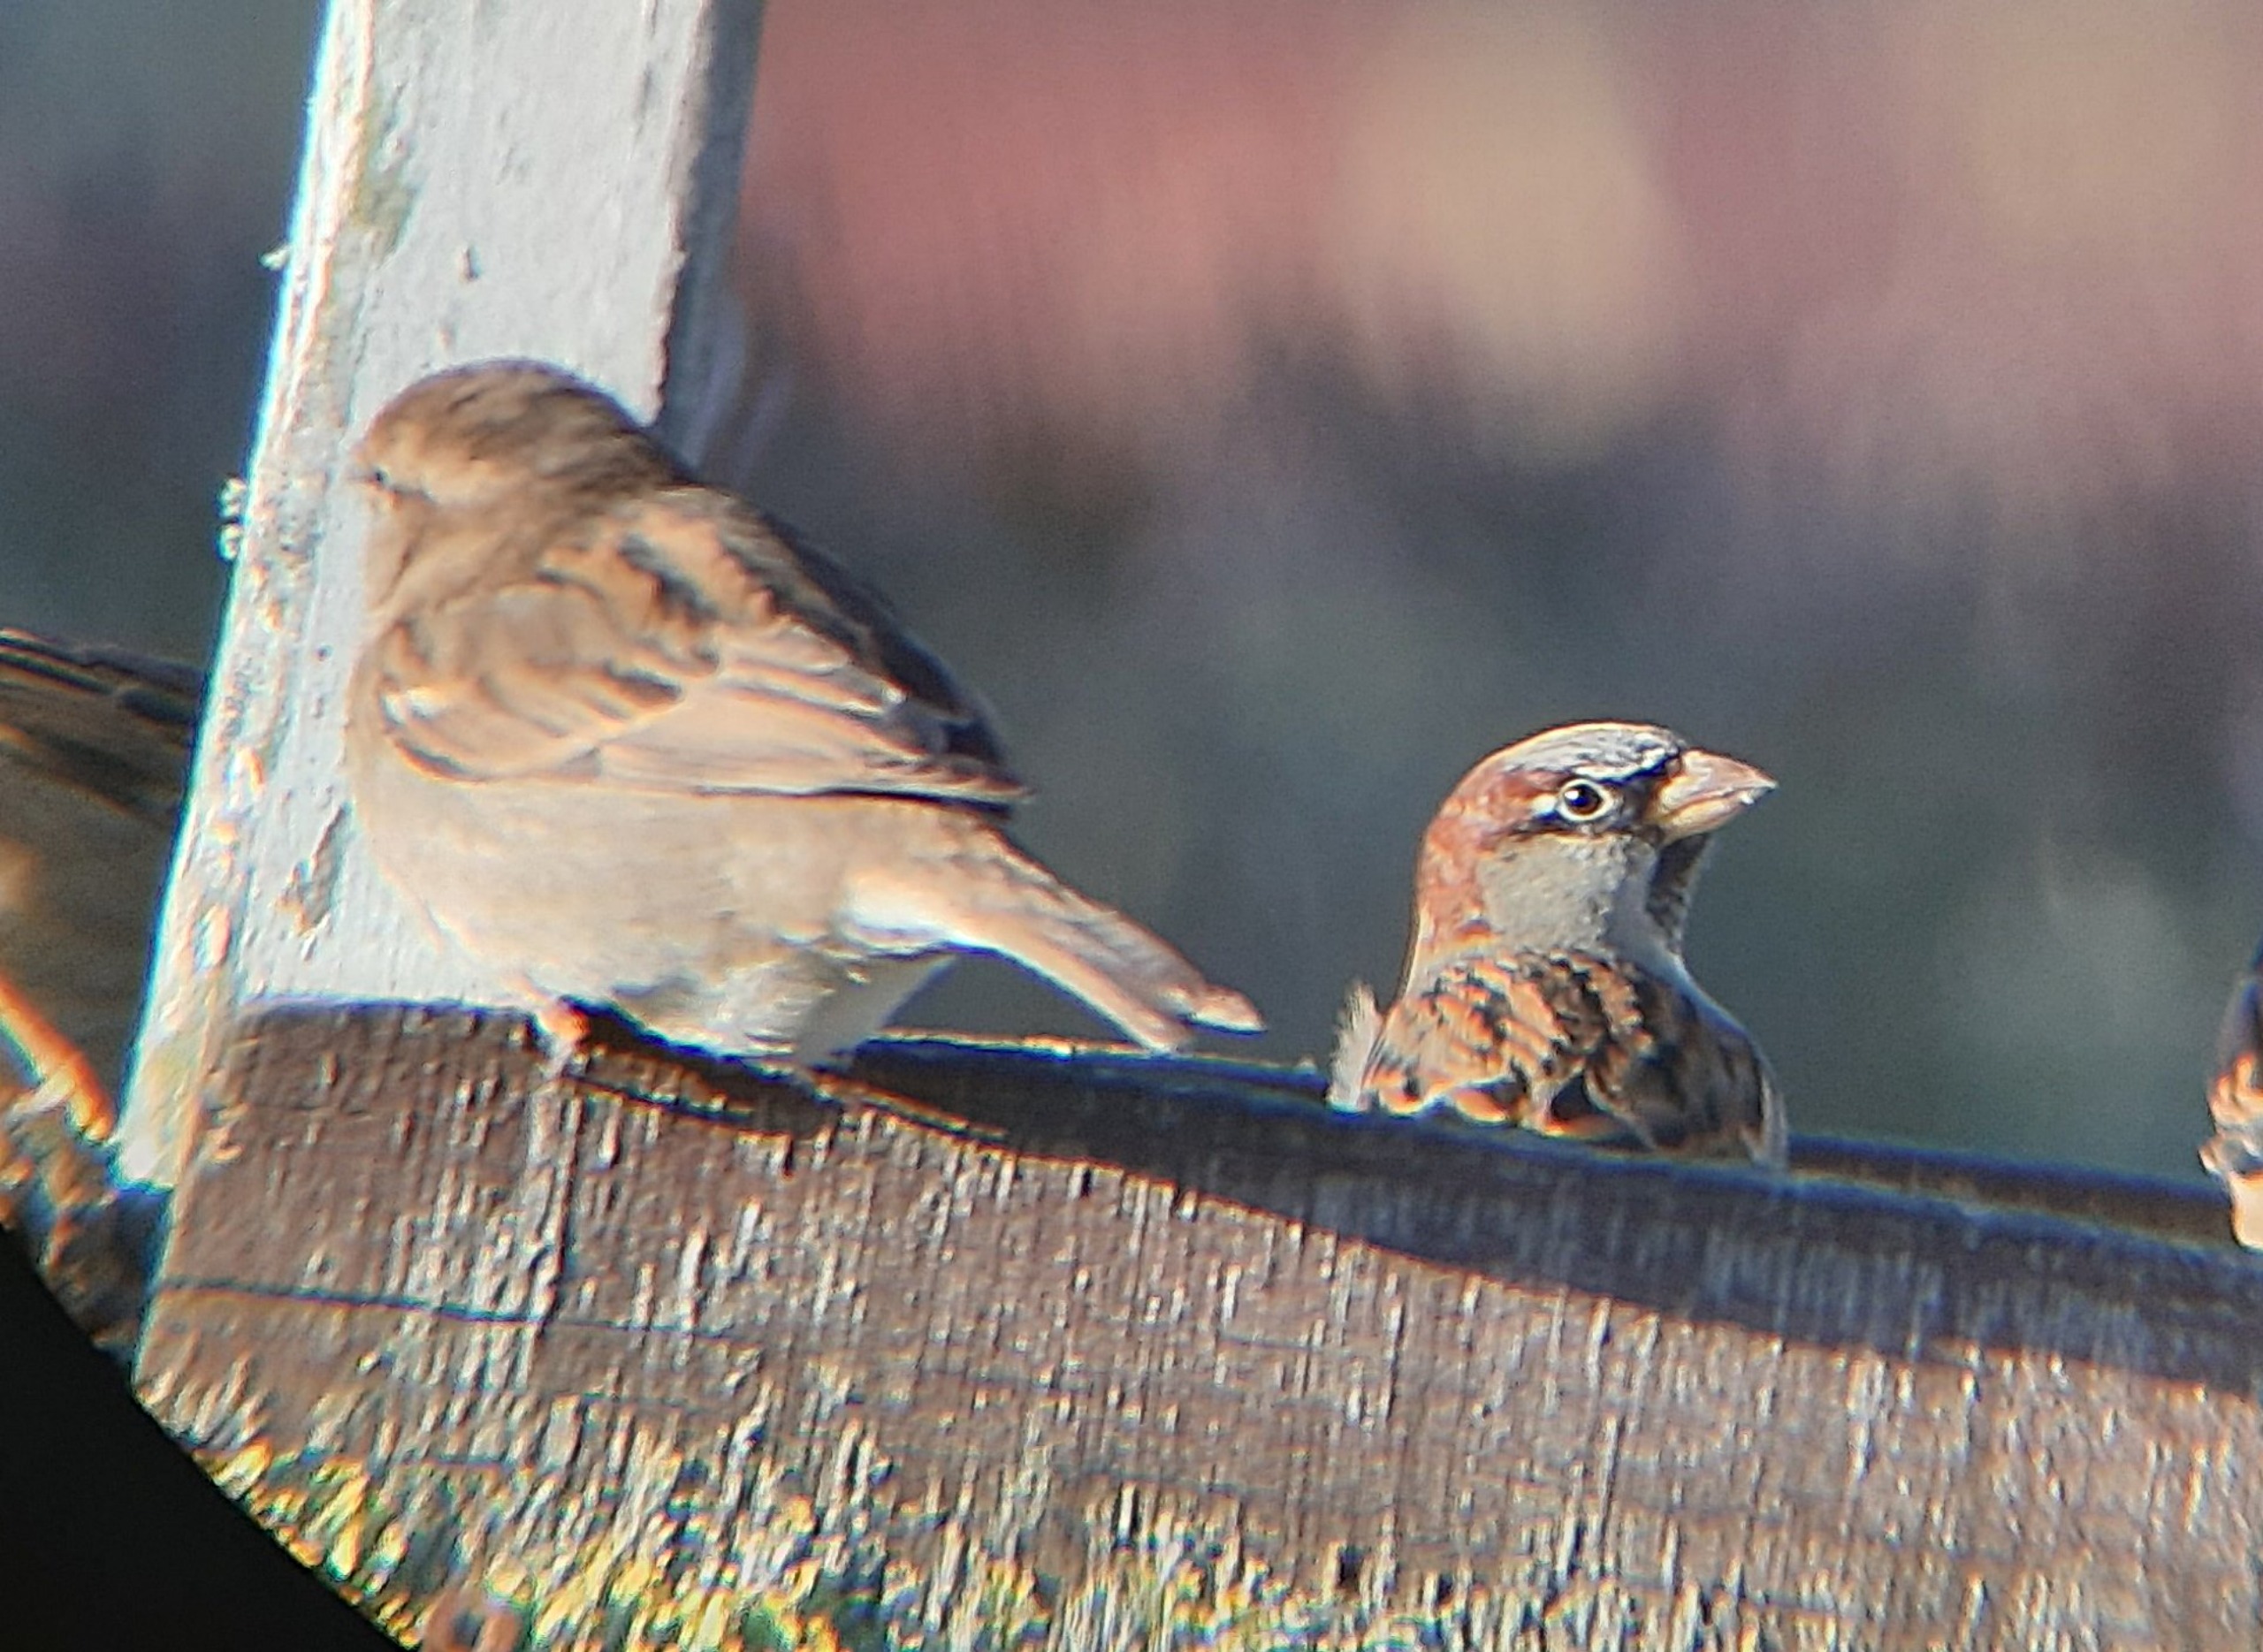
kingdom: Animalia
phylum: Chordata
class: Aves
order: Passeriformes
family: Passeridae
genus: Passer
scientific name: Passer domesticus
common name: Gråspurv
